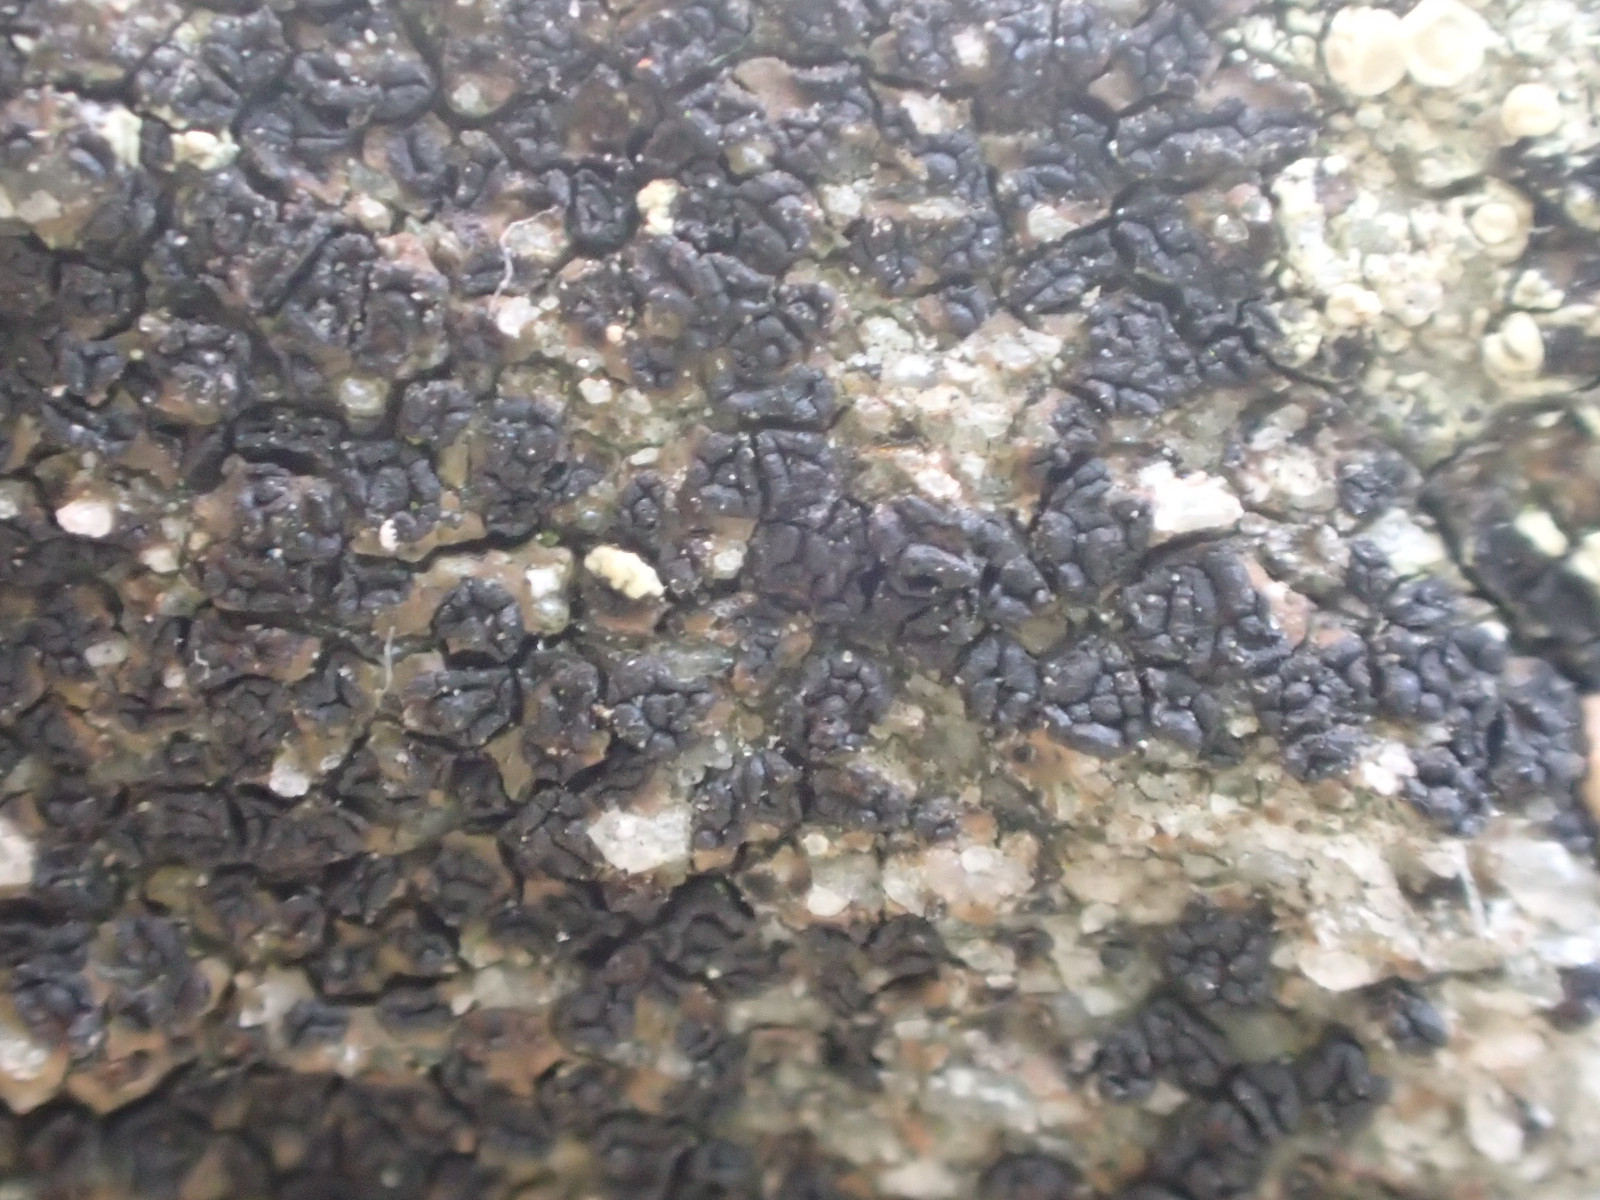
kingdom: Fungi
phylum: Ascomycota
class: Lecanoromycetes
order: Acarosporales
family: Acarosporaceae
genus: Acarospora
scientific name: Acarospora privigna
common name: sort foldekantlav
